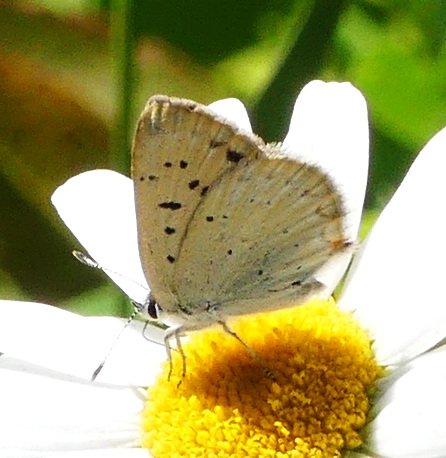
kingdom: Animalia
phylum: Arthropoda
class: Insecta
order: Lepidoptera
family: Sesiidae
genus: Sesia
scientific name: Sesia Lycaena epixanthe
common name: Bog Copper
